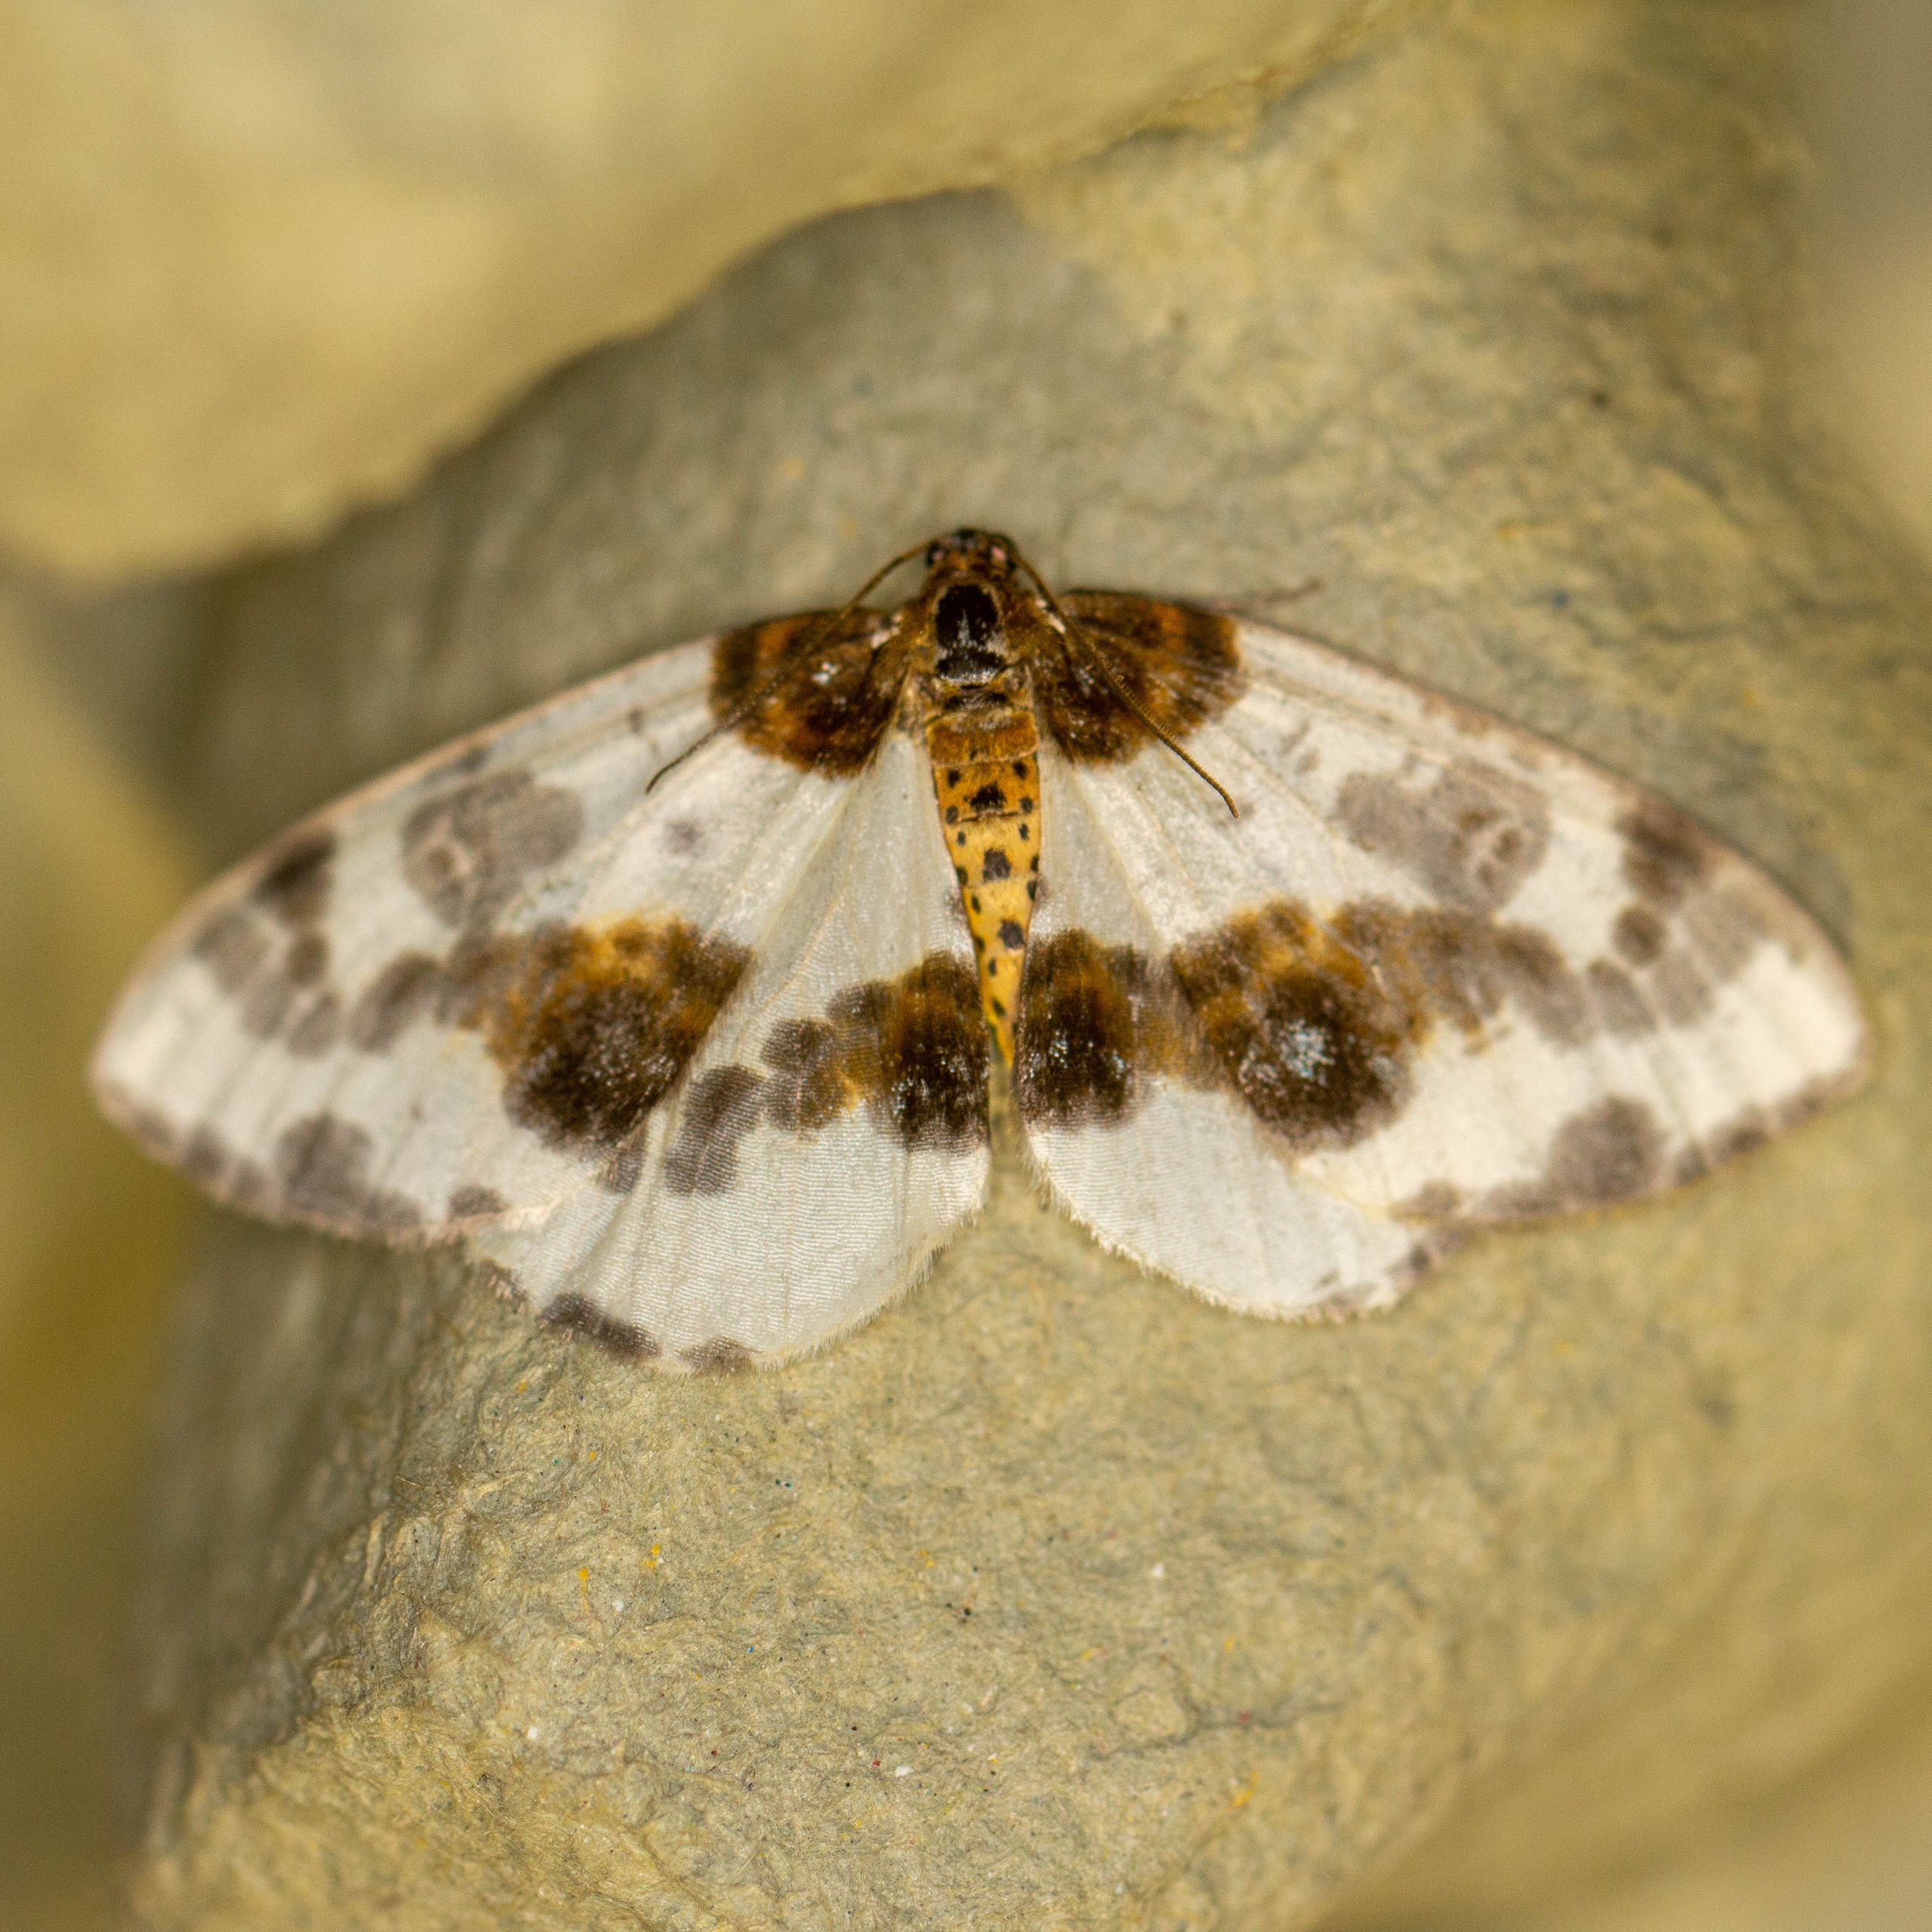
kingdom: Animalia
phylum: Arthropoda
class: Insecta
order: Lepidoptera
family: Geometridae
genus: Abraxas
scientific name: Abraxas sylvata
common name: Elmemåler
